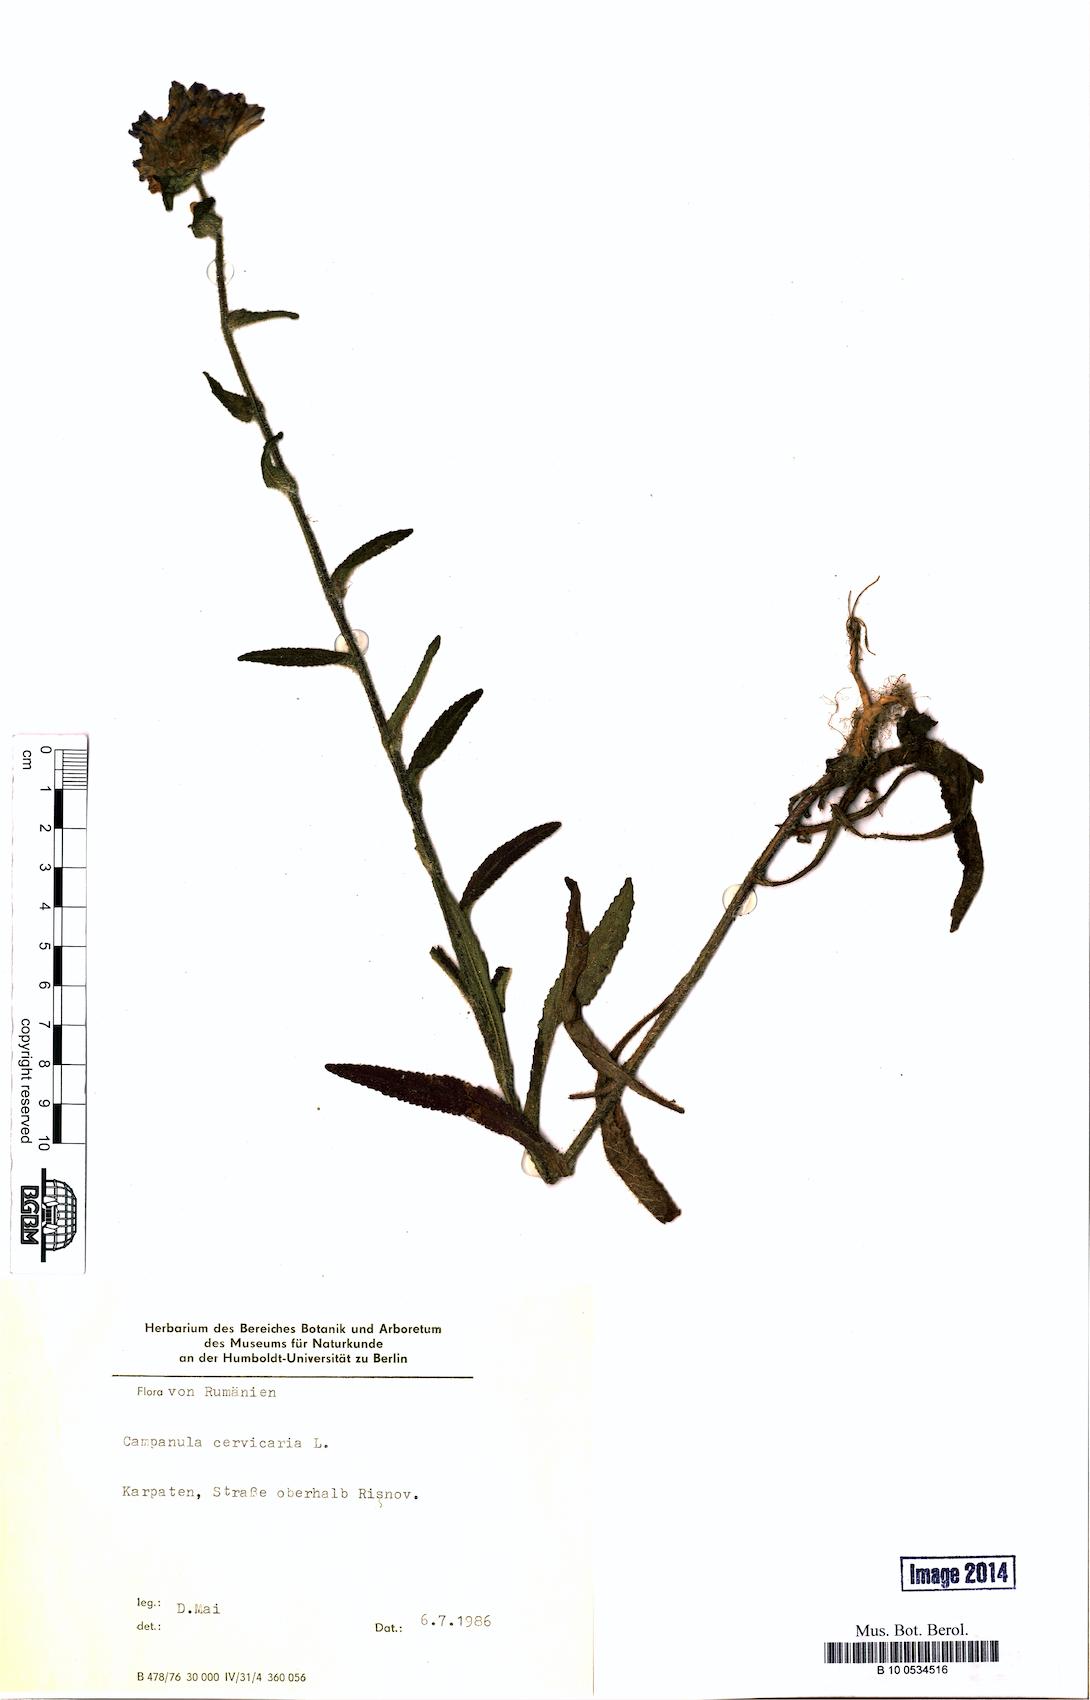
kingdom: Plantae
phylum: Tracheophyta
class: Magnoliopsida
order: Asterales
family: Campanulaceae
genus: Campanula
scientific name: Campanula cervicaria
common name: Bristly bellflower
